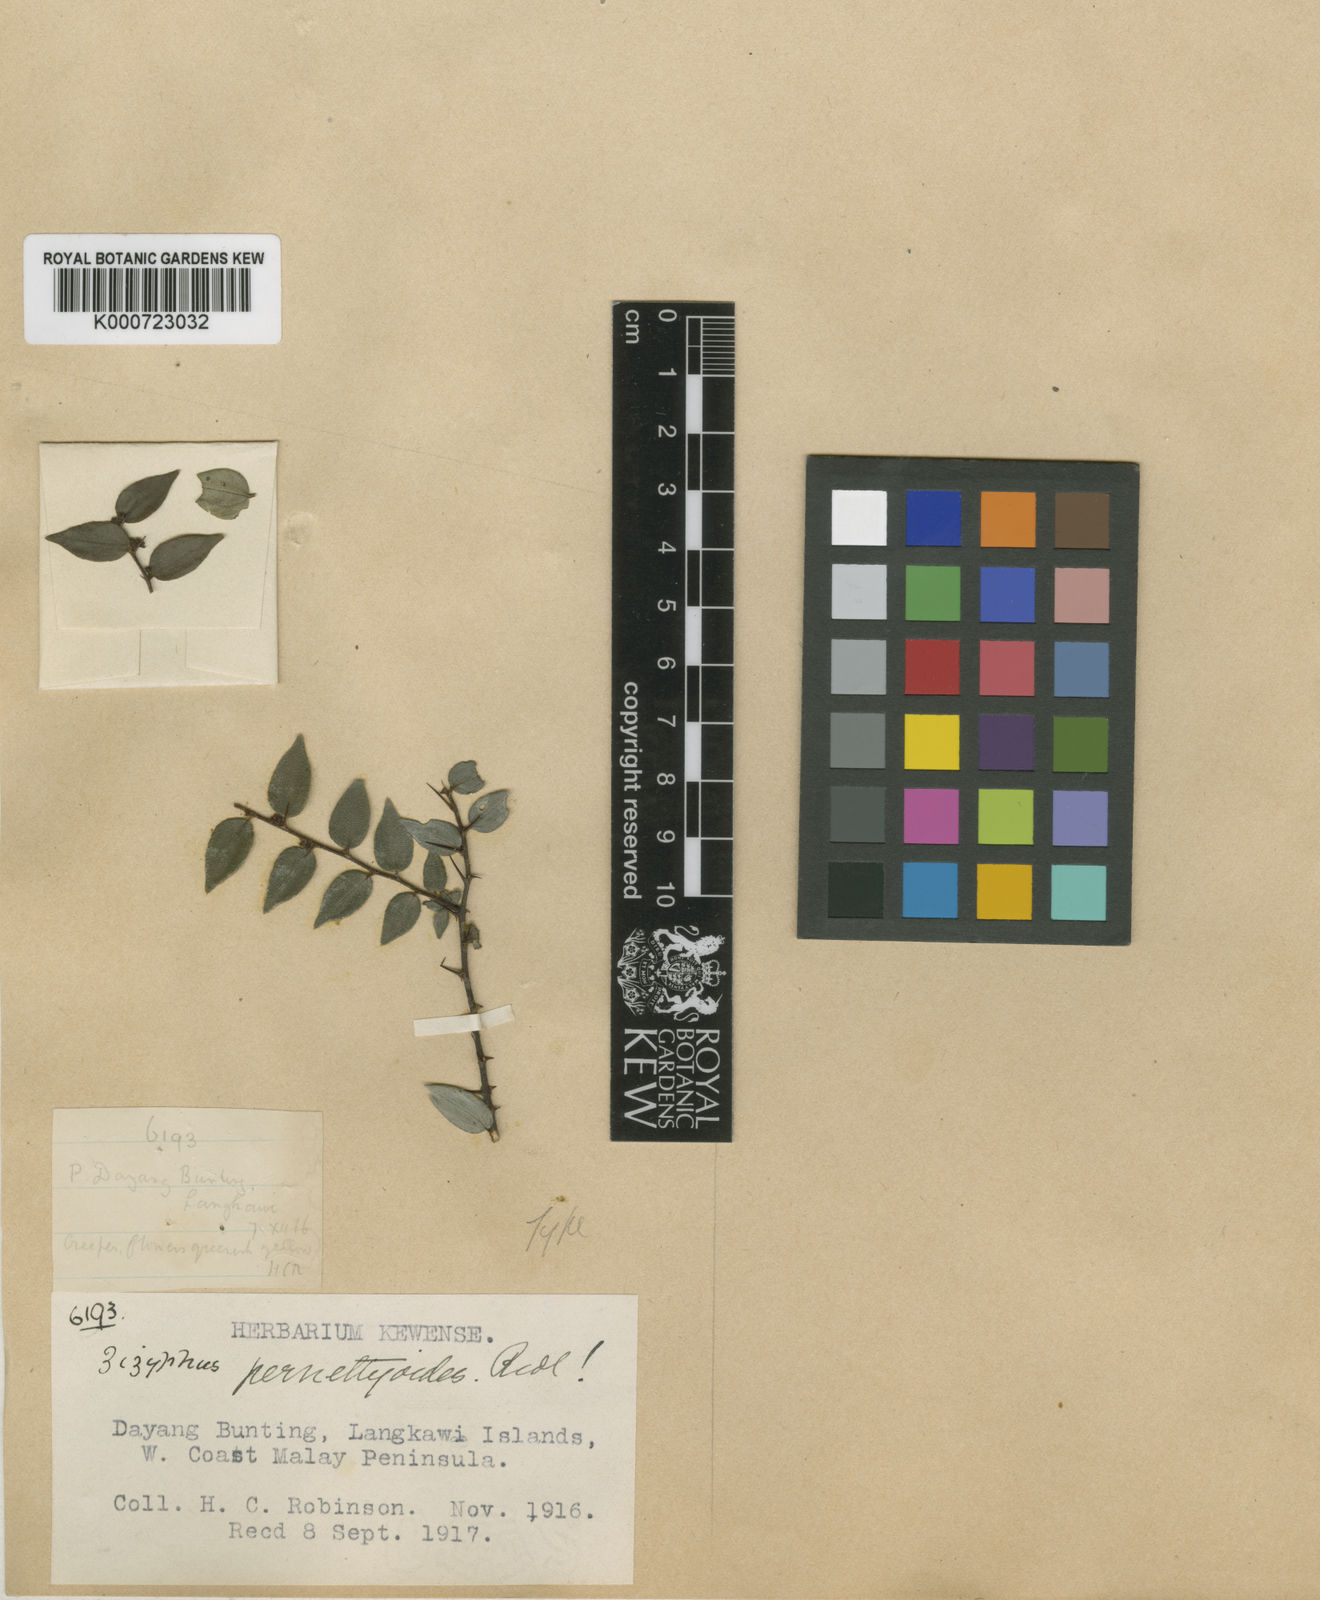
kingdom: Plantae
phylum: Tracheophyta
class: Magnoliopsida
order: Rosales
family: Rhamnaceae
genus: Ziziphus
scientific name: Ziziphus
